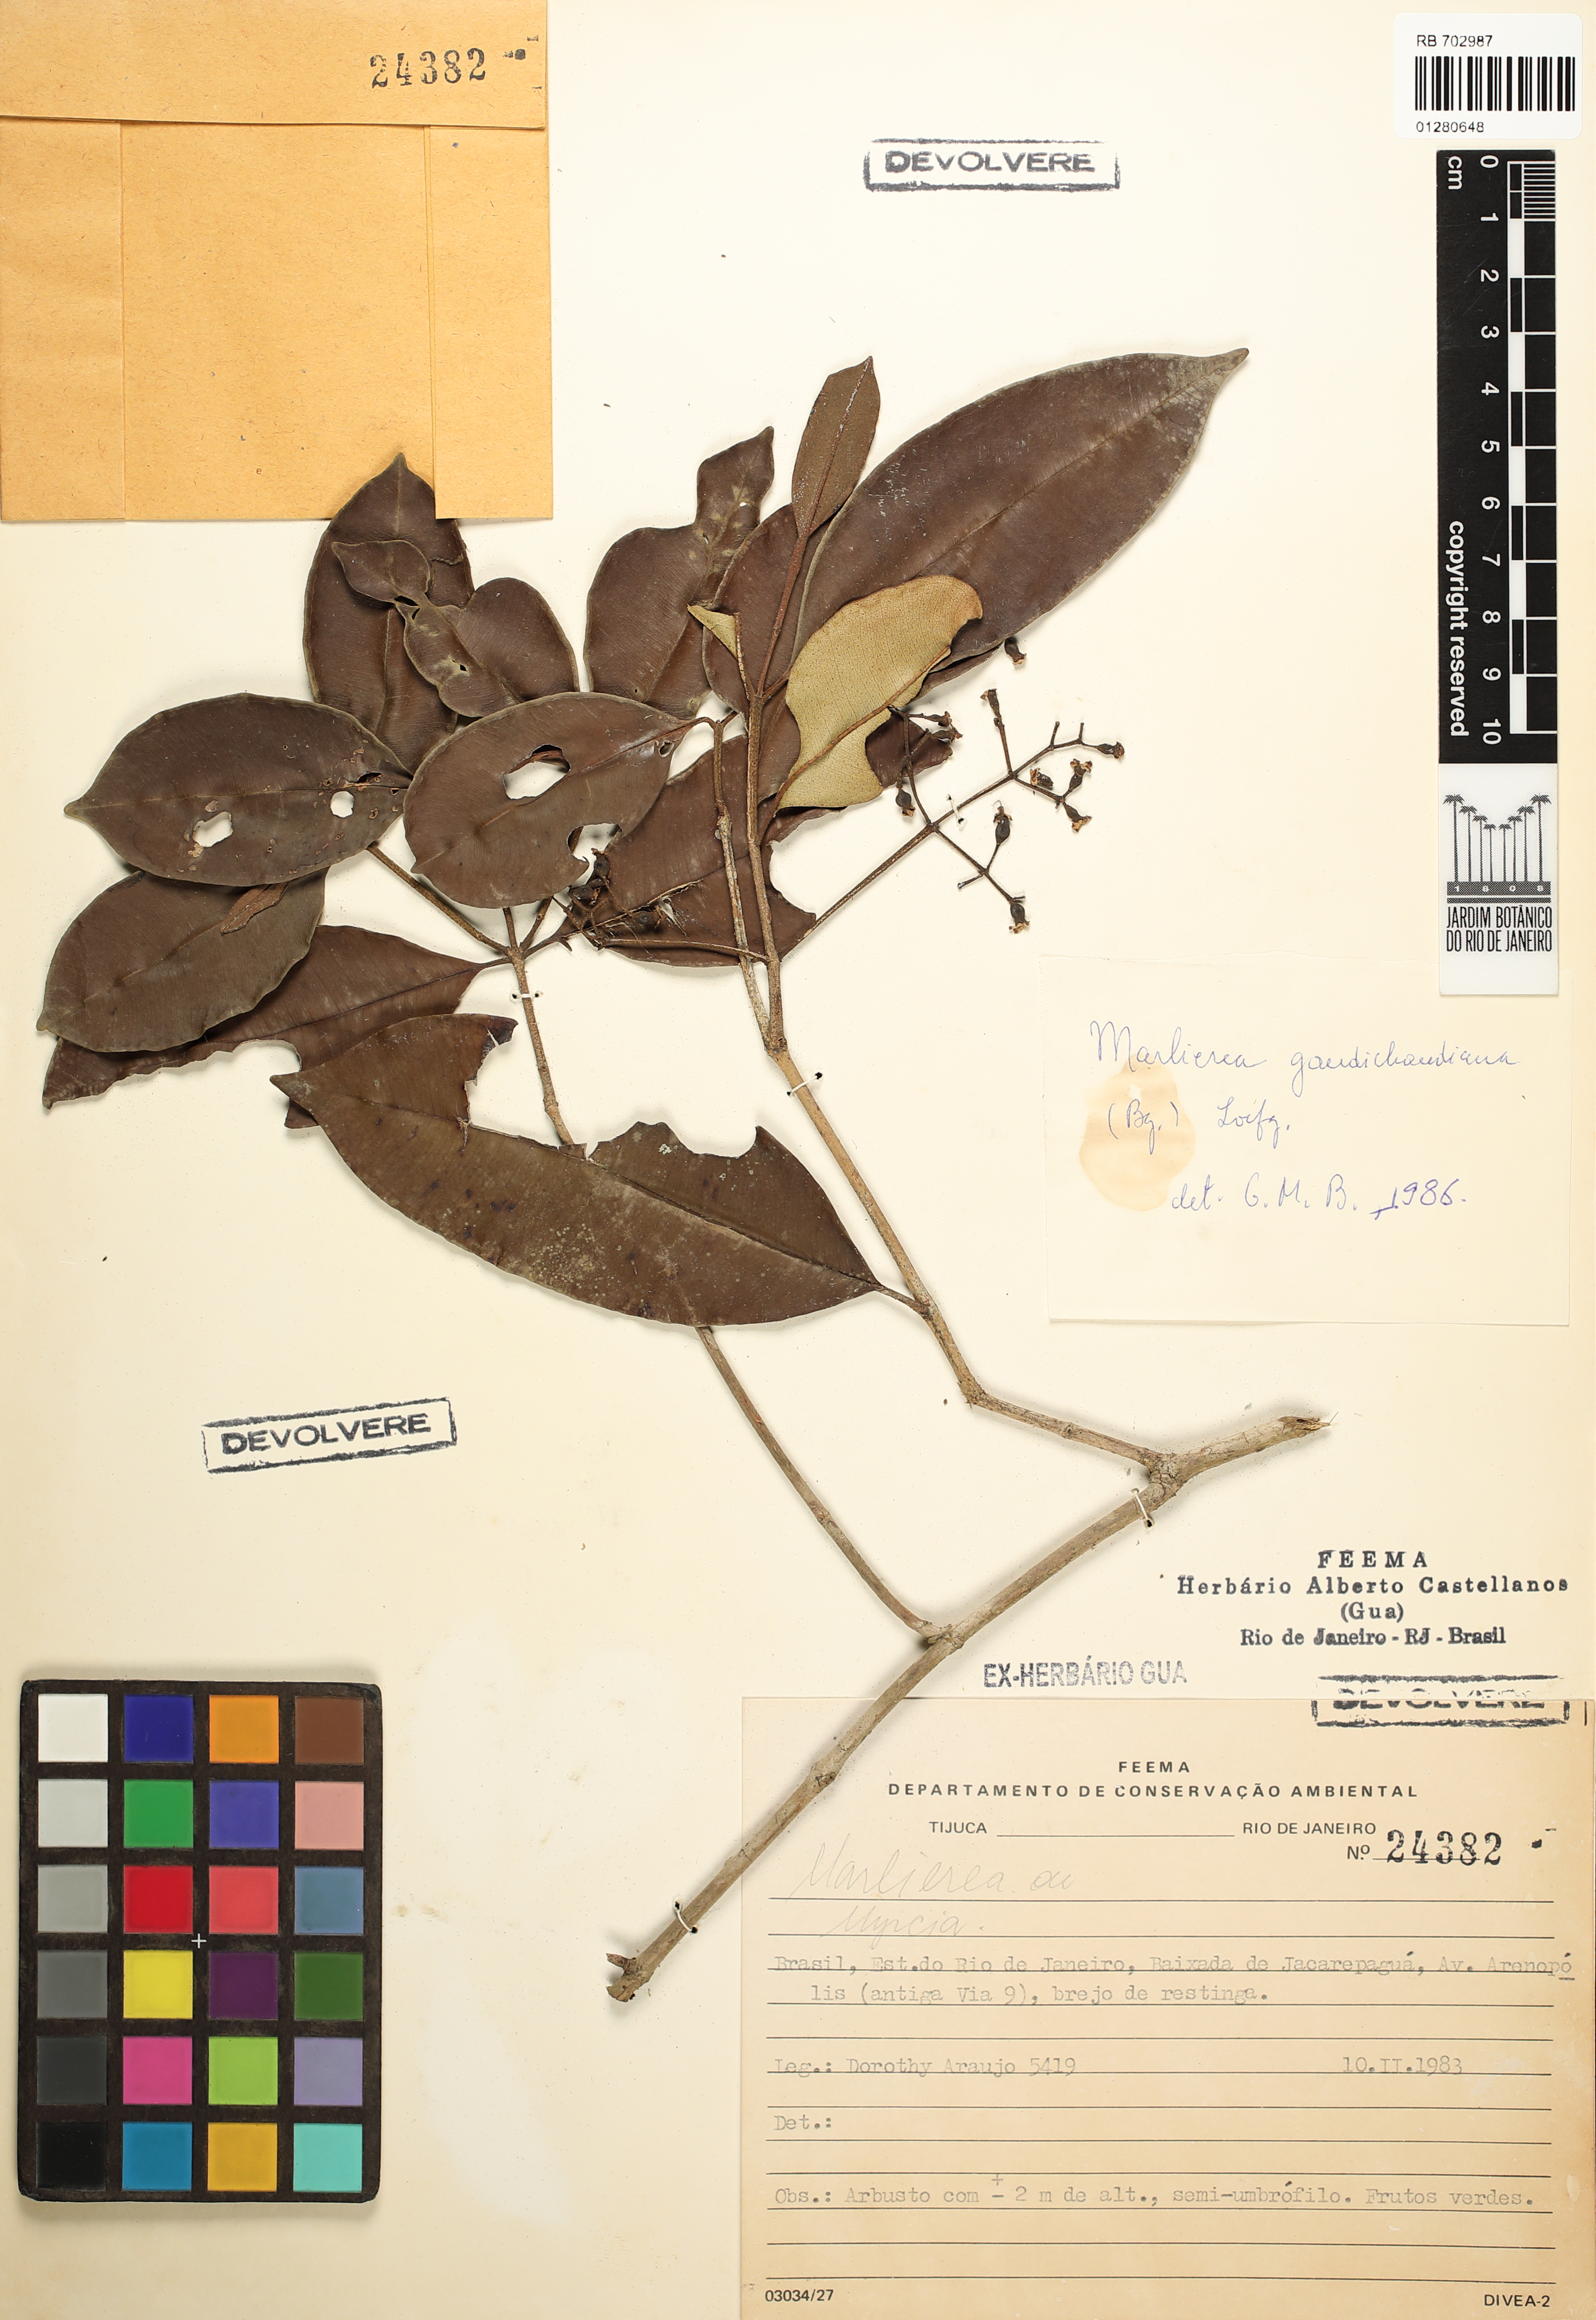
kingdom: Plantae
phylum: Tracheophyta
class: Magnoliopsida
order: Myrtales
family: Myrtaceae
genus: Marlierea
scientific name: Marlierea gaudichaudiana
